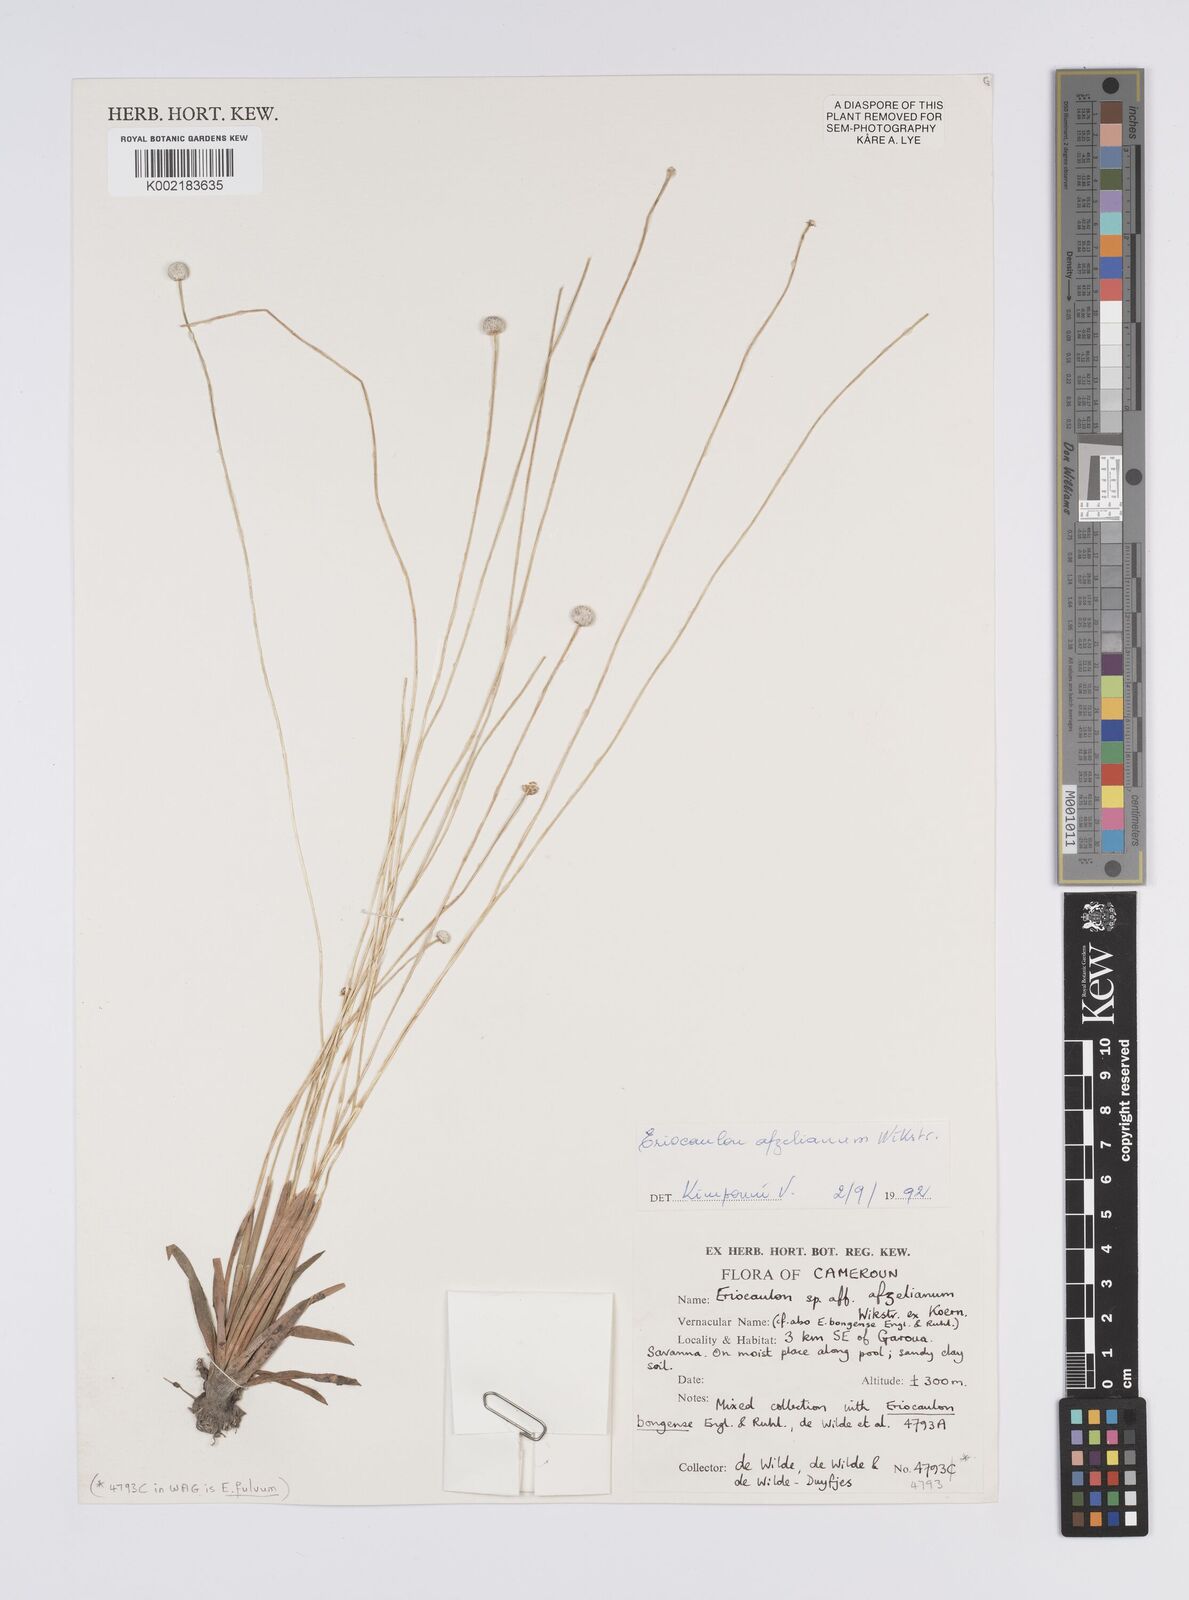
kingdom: Plantae
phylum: Tracheophyta
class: Liliopsida
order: Poales
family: Eriocaulaceae
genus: Eriocaulon
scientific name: Eriocaulon afzelianum
